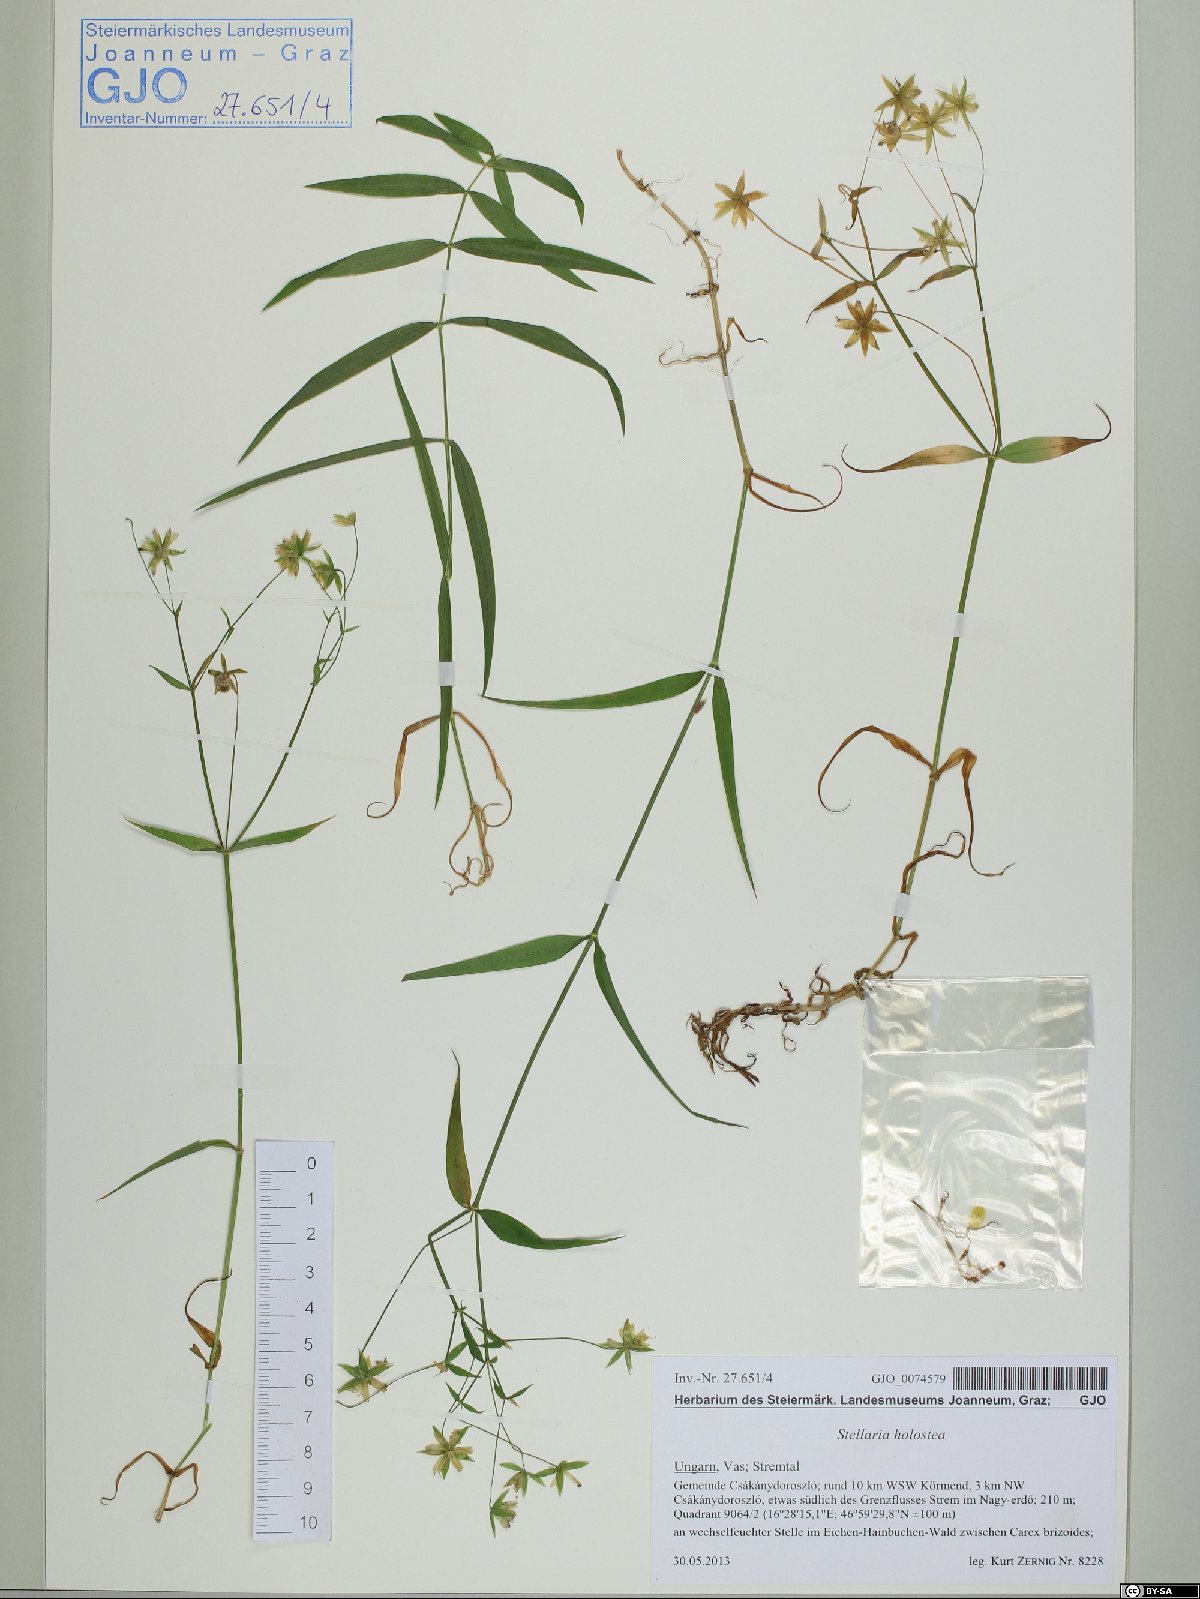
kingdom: Plantae
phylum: Tracheophyta
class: Magnoliopsida
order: Caryophyllales
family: Caryophyllaceae
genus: Rabelera
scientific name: Rabelera holostea
